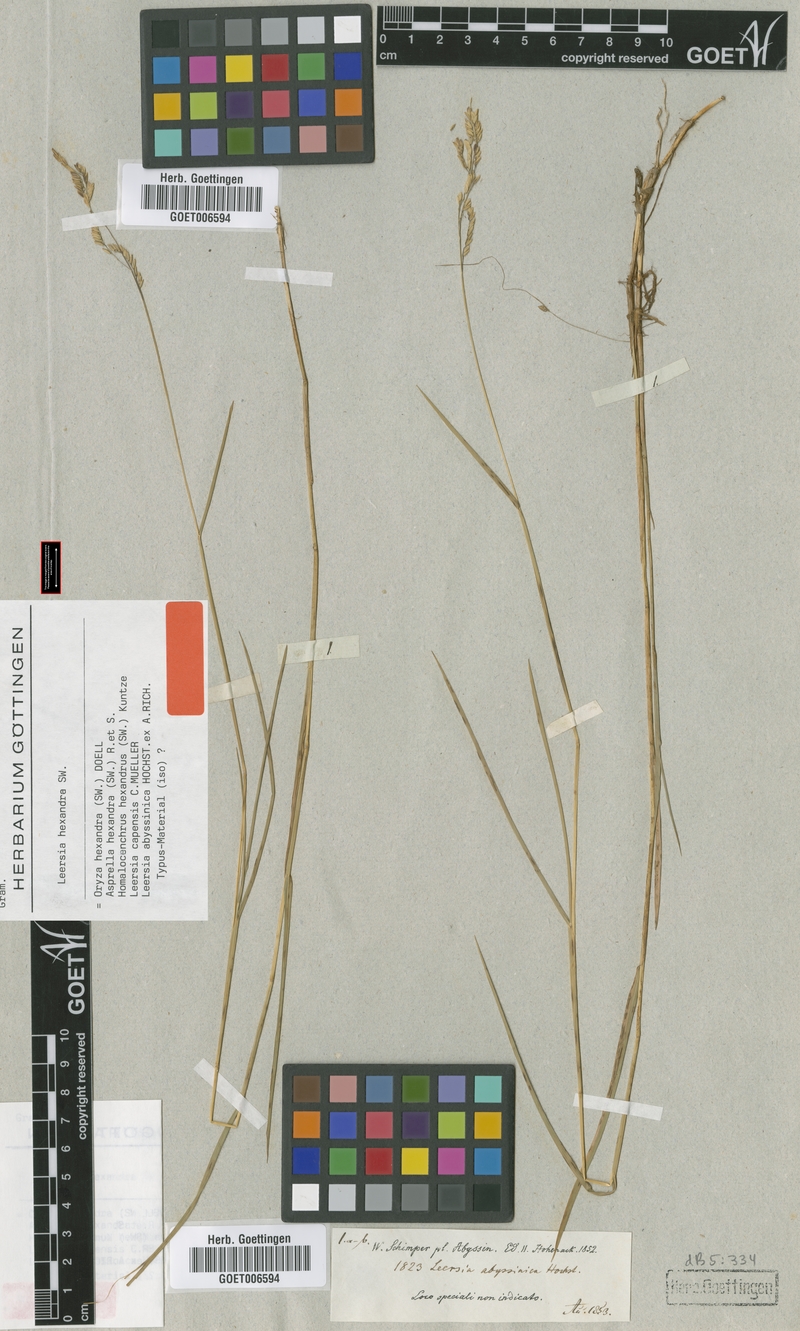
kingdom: Plantae
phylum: Tracheophyta
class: Liliopsida
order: Poales
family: Poaceae
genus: Leersia
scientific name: Leersia hexandra
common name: Southern cut grass
